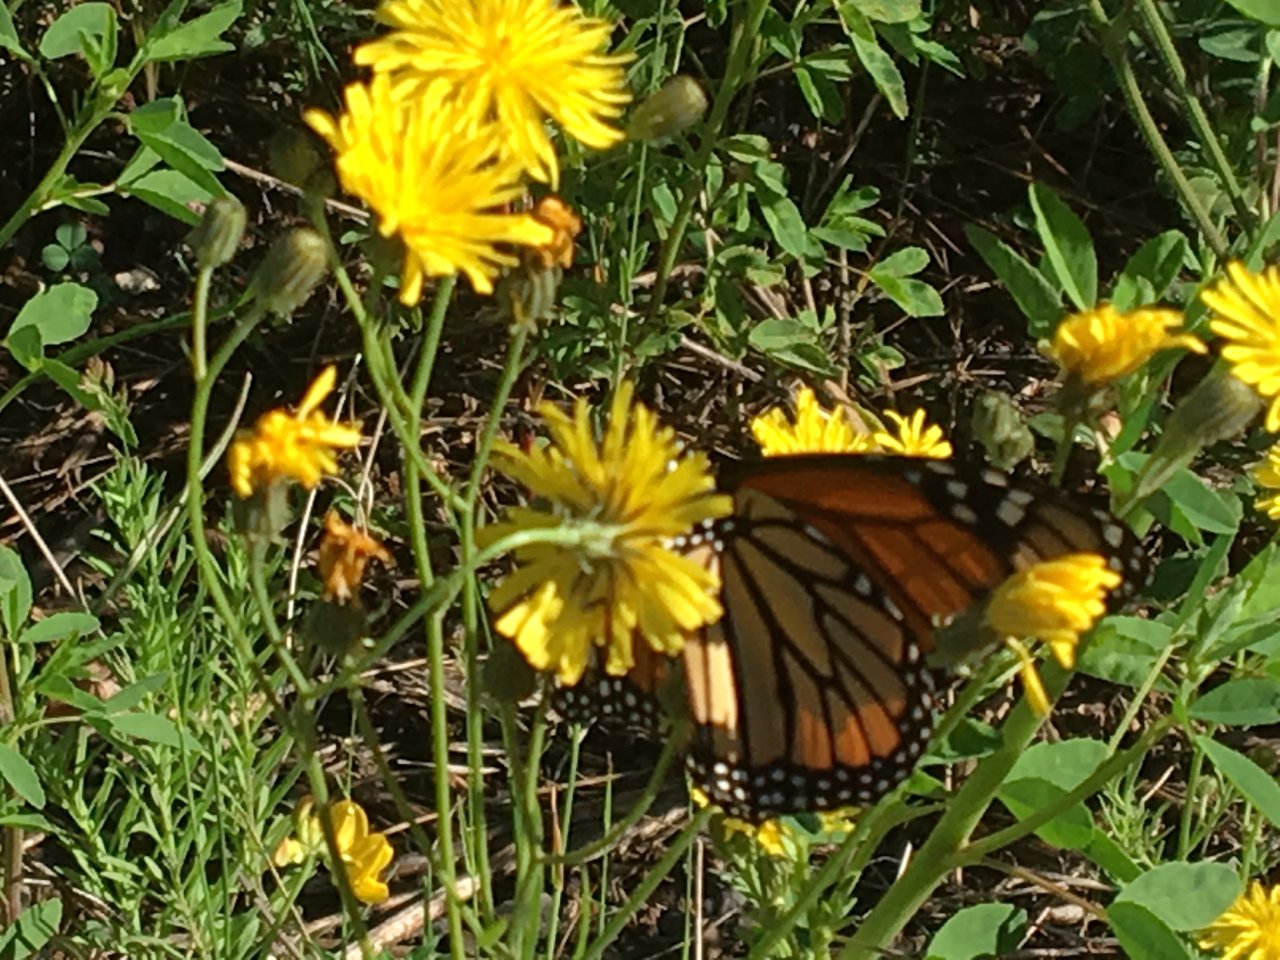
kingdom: Animalia
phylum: Arthropoda
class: Insecta
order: Lepidoptera
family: Nymphalidae
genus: Danaus
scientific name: Danaus plexippus
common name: Monarch
